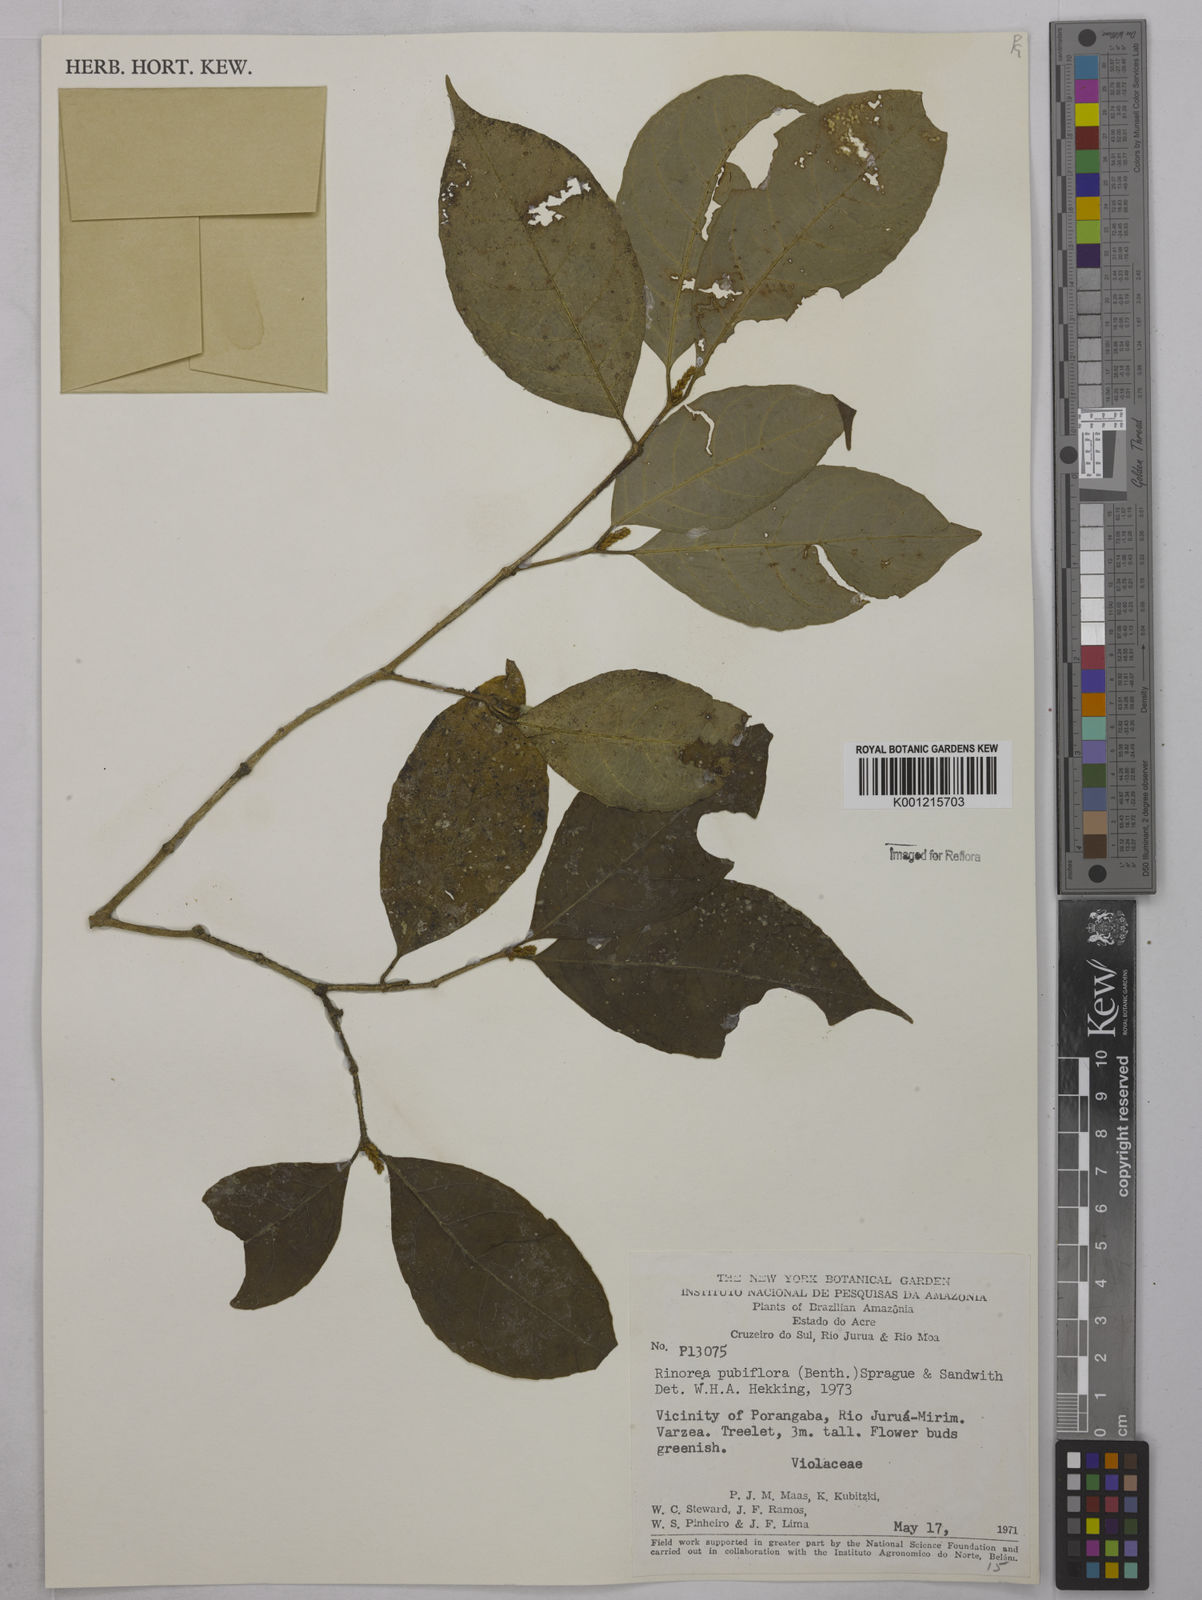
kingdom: Plantae
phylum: Tracheophyta
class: Magnoliopsida
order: Malpighiales
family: Violaceae
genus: Rinorea
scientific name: Rinorea pubiflora
